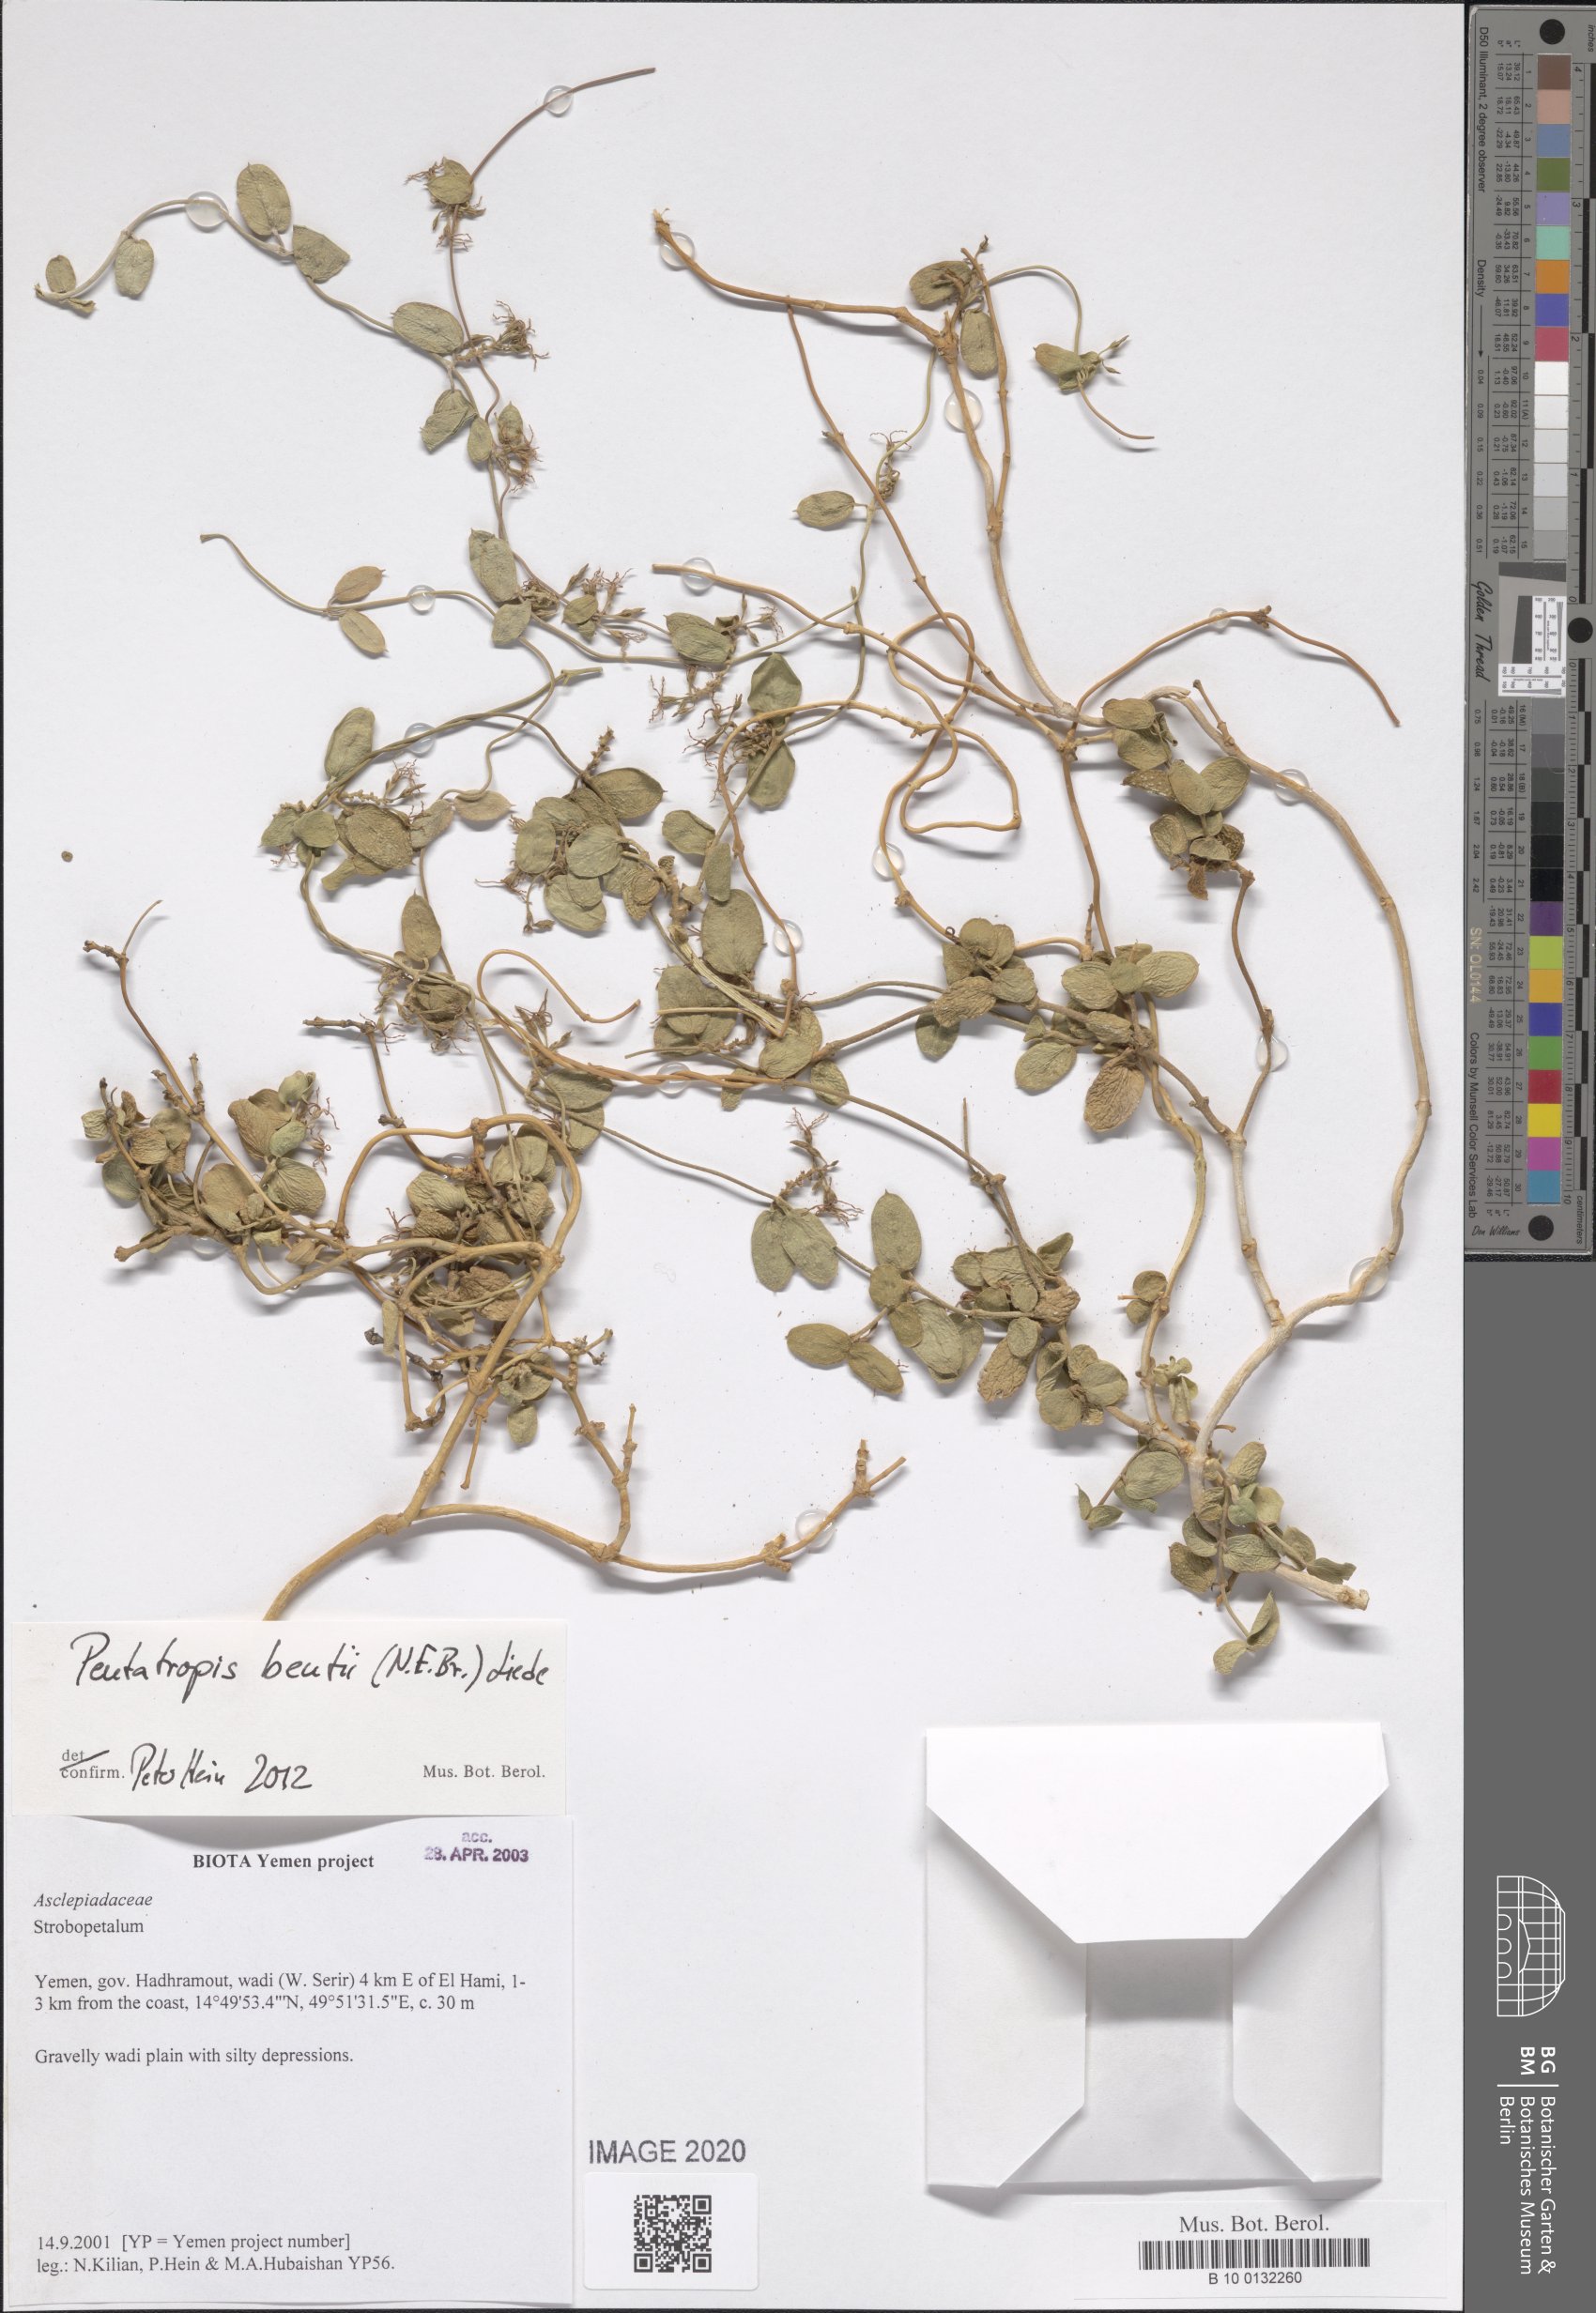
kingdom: Plantae
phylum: Tracheophyta
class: Magnoliopsida
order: Gentianales
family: Apocynaceae
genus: Pentatropis
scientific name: Pentatropis bentii
